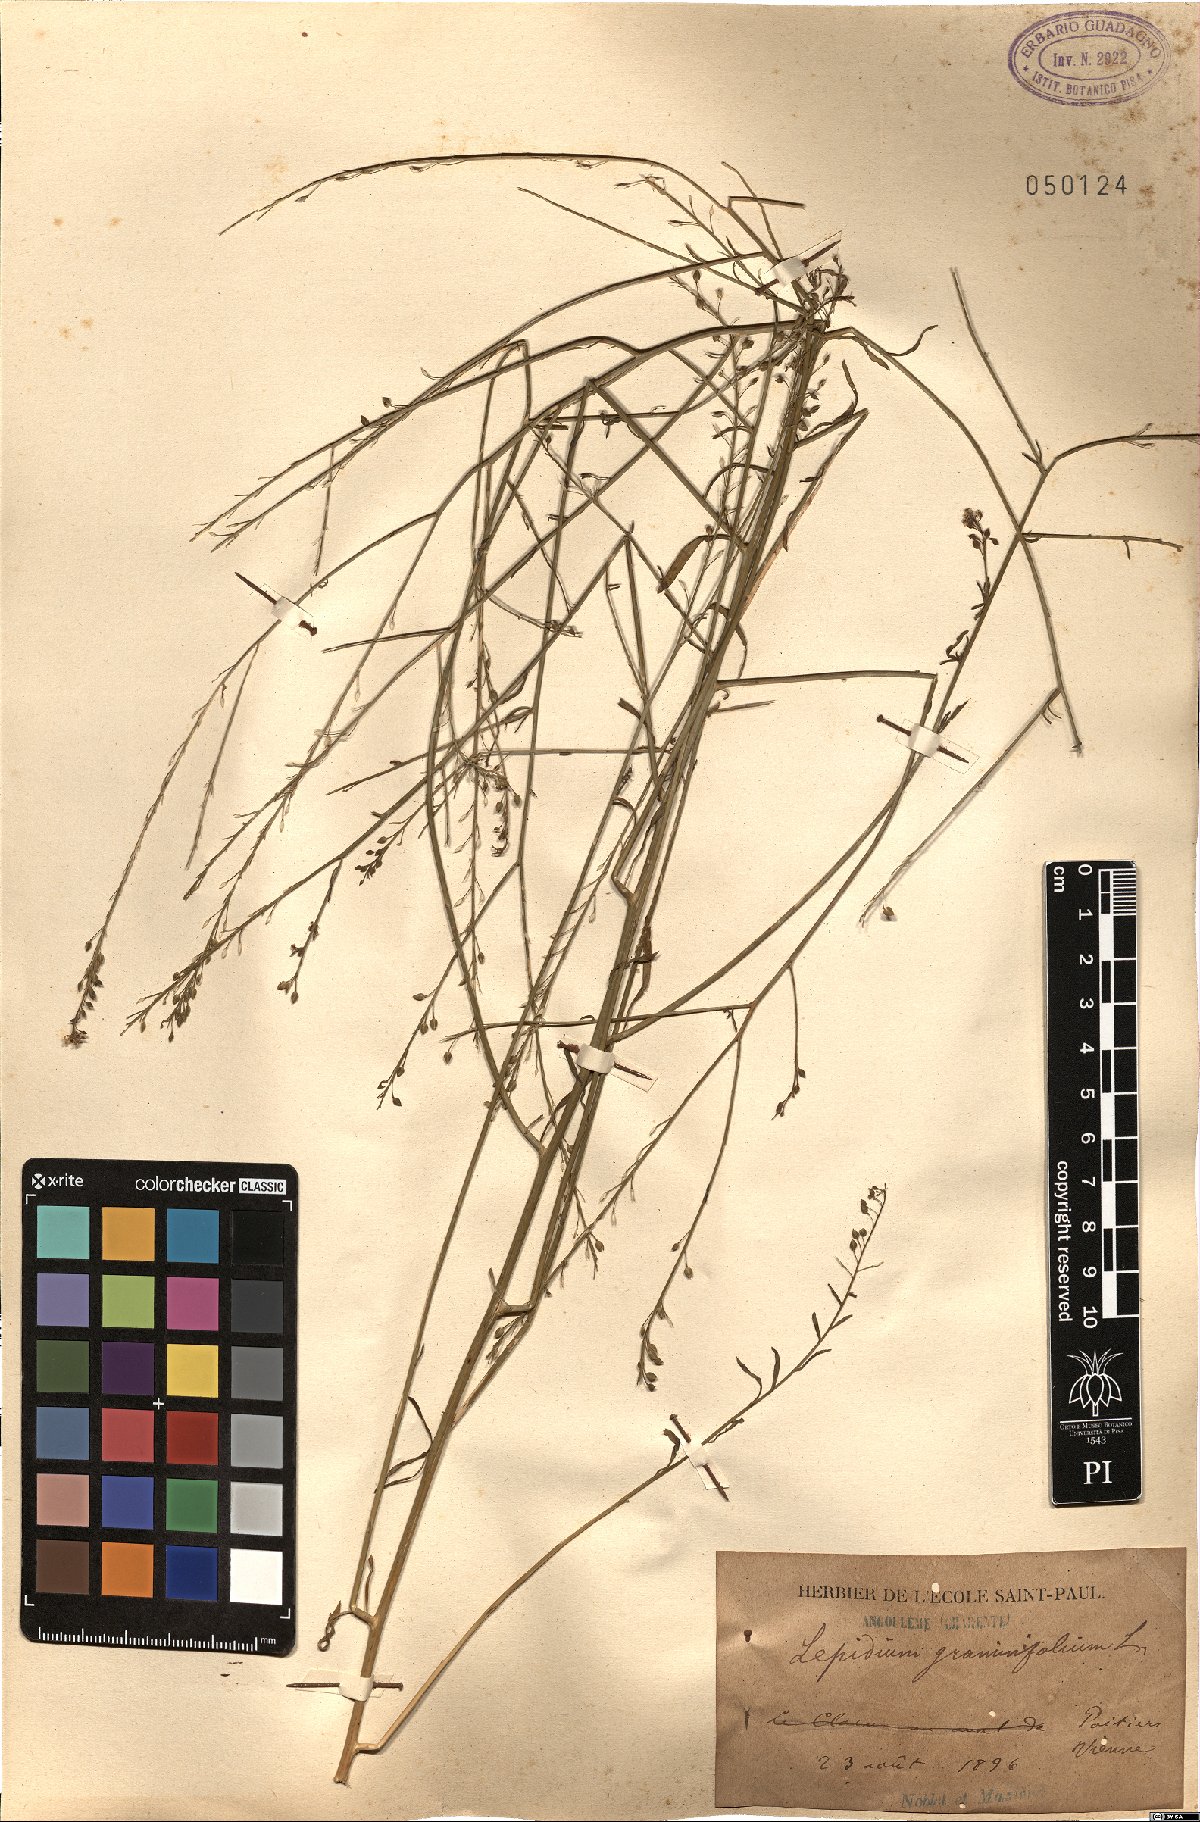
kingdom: Plantae
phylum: Tracheophyta
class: Magnoliopsida
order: Brassicales
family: Brassicaceae
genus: Lepidium
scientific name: Lepidium graminifolium
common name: Tall pepperwort
